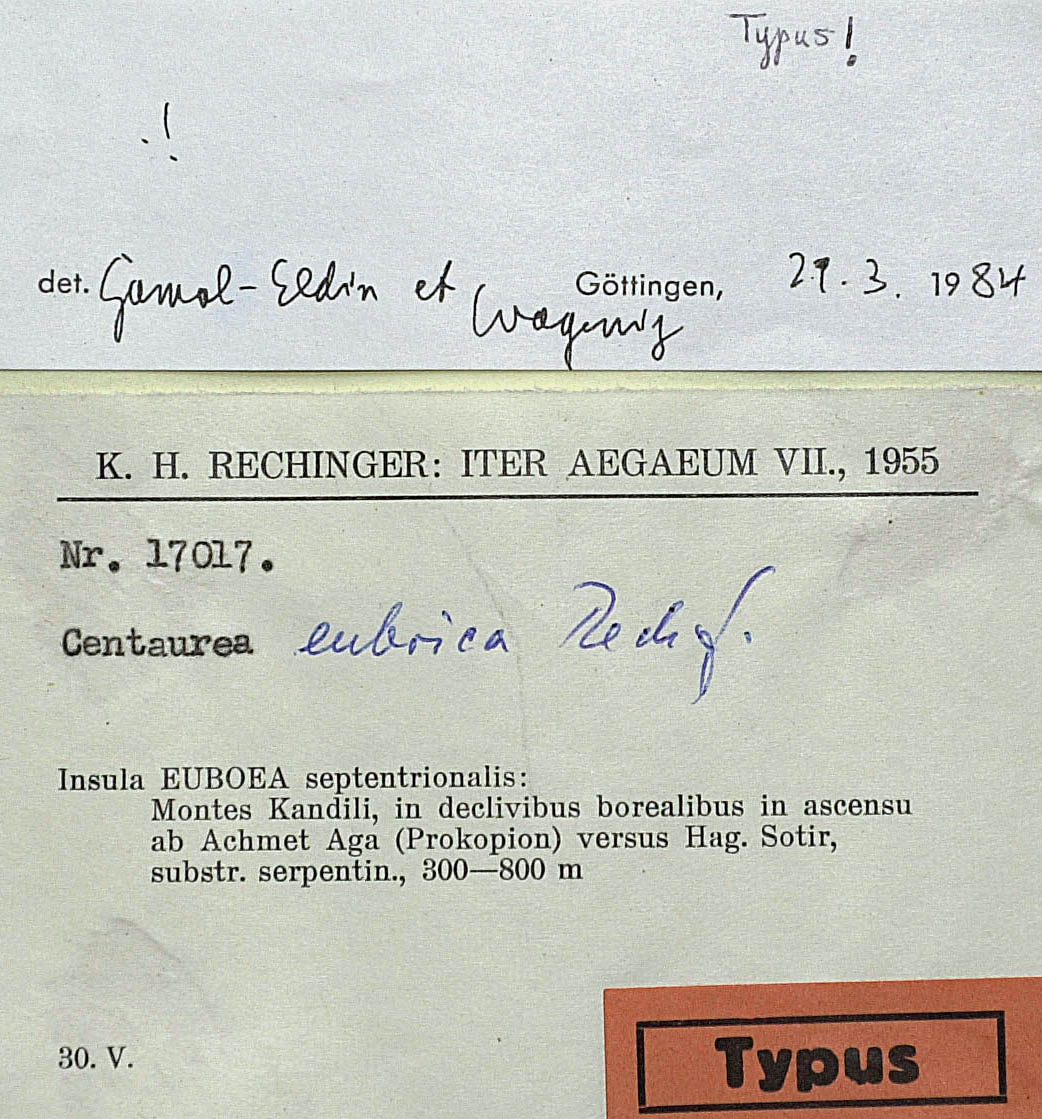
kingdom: Plantae
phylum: Tracheophyta
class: Magnoliopsida
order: Asterales
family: Asteraceae
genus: Centaurea
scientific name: Centaurea euboica
